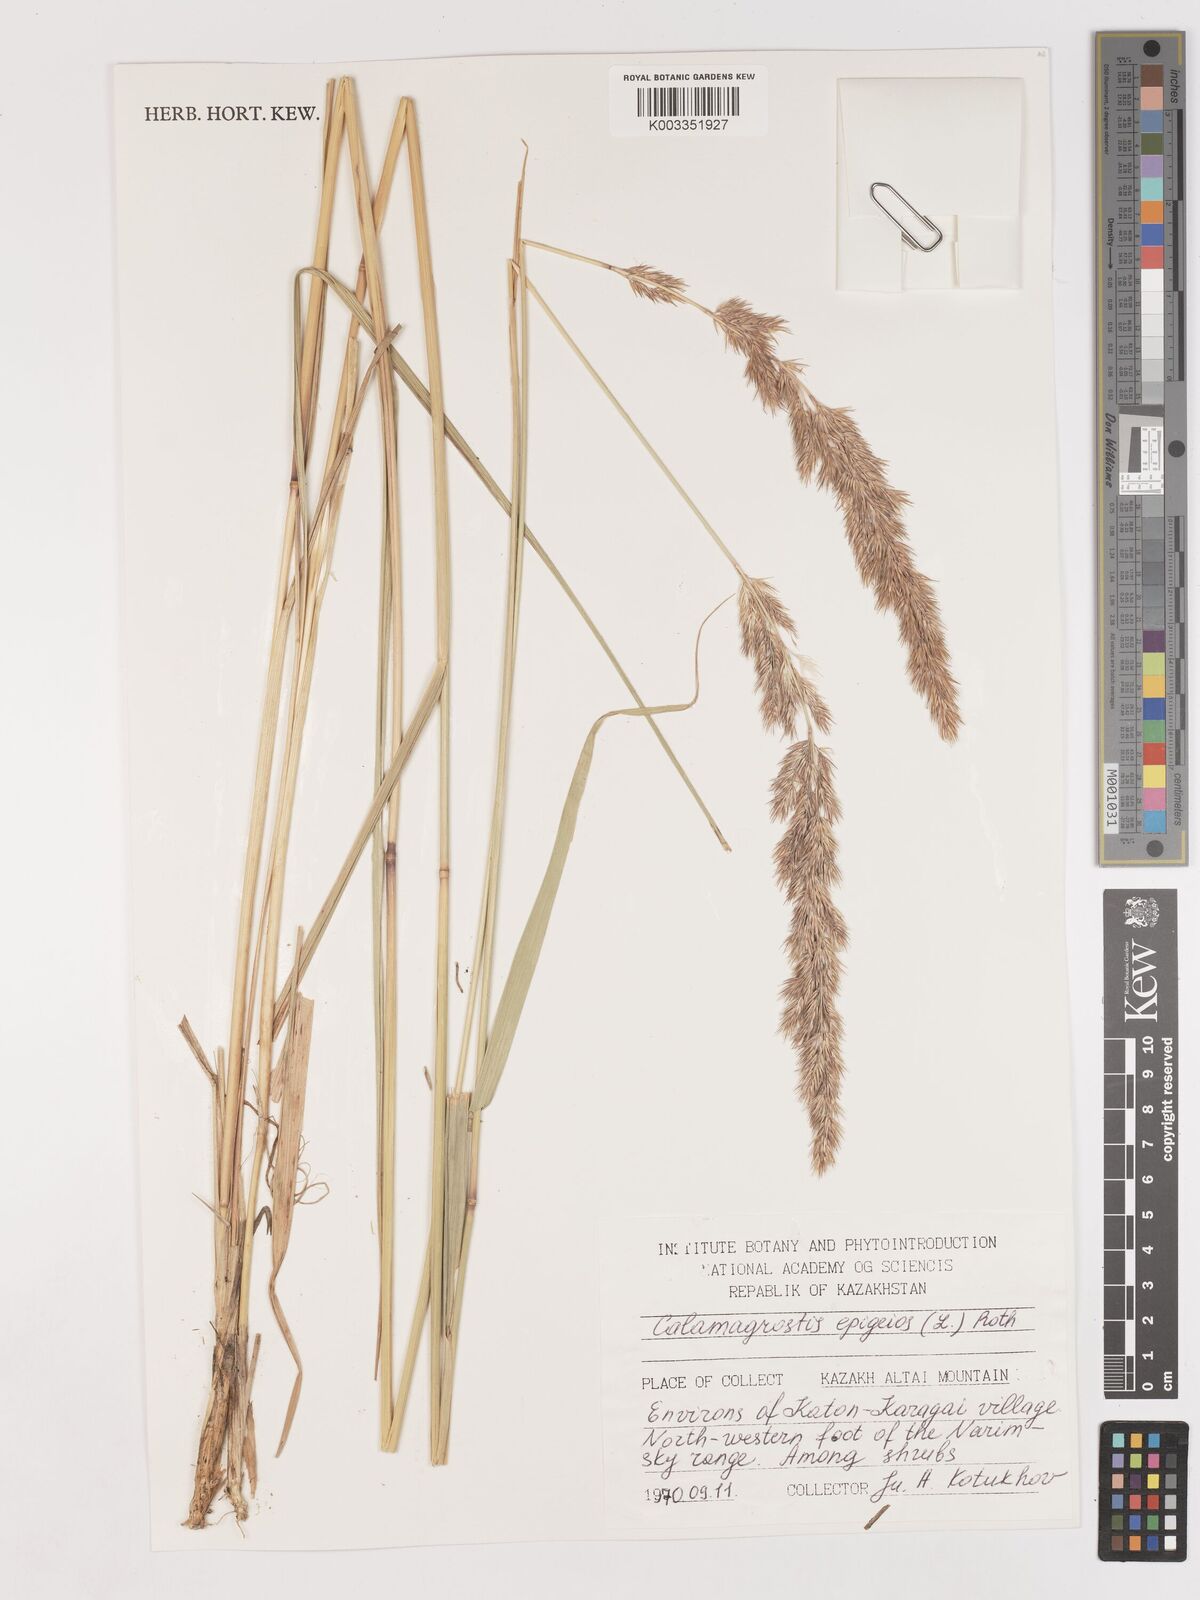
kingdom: Plantae
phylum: Tracheophyta
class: Liliopsida
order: Poales
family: Poaceae
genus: Calamagrostis
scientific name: Calamagrostis epigejos
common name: Wood small-reed
